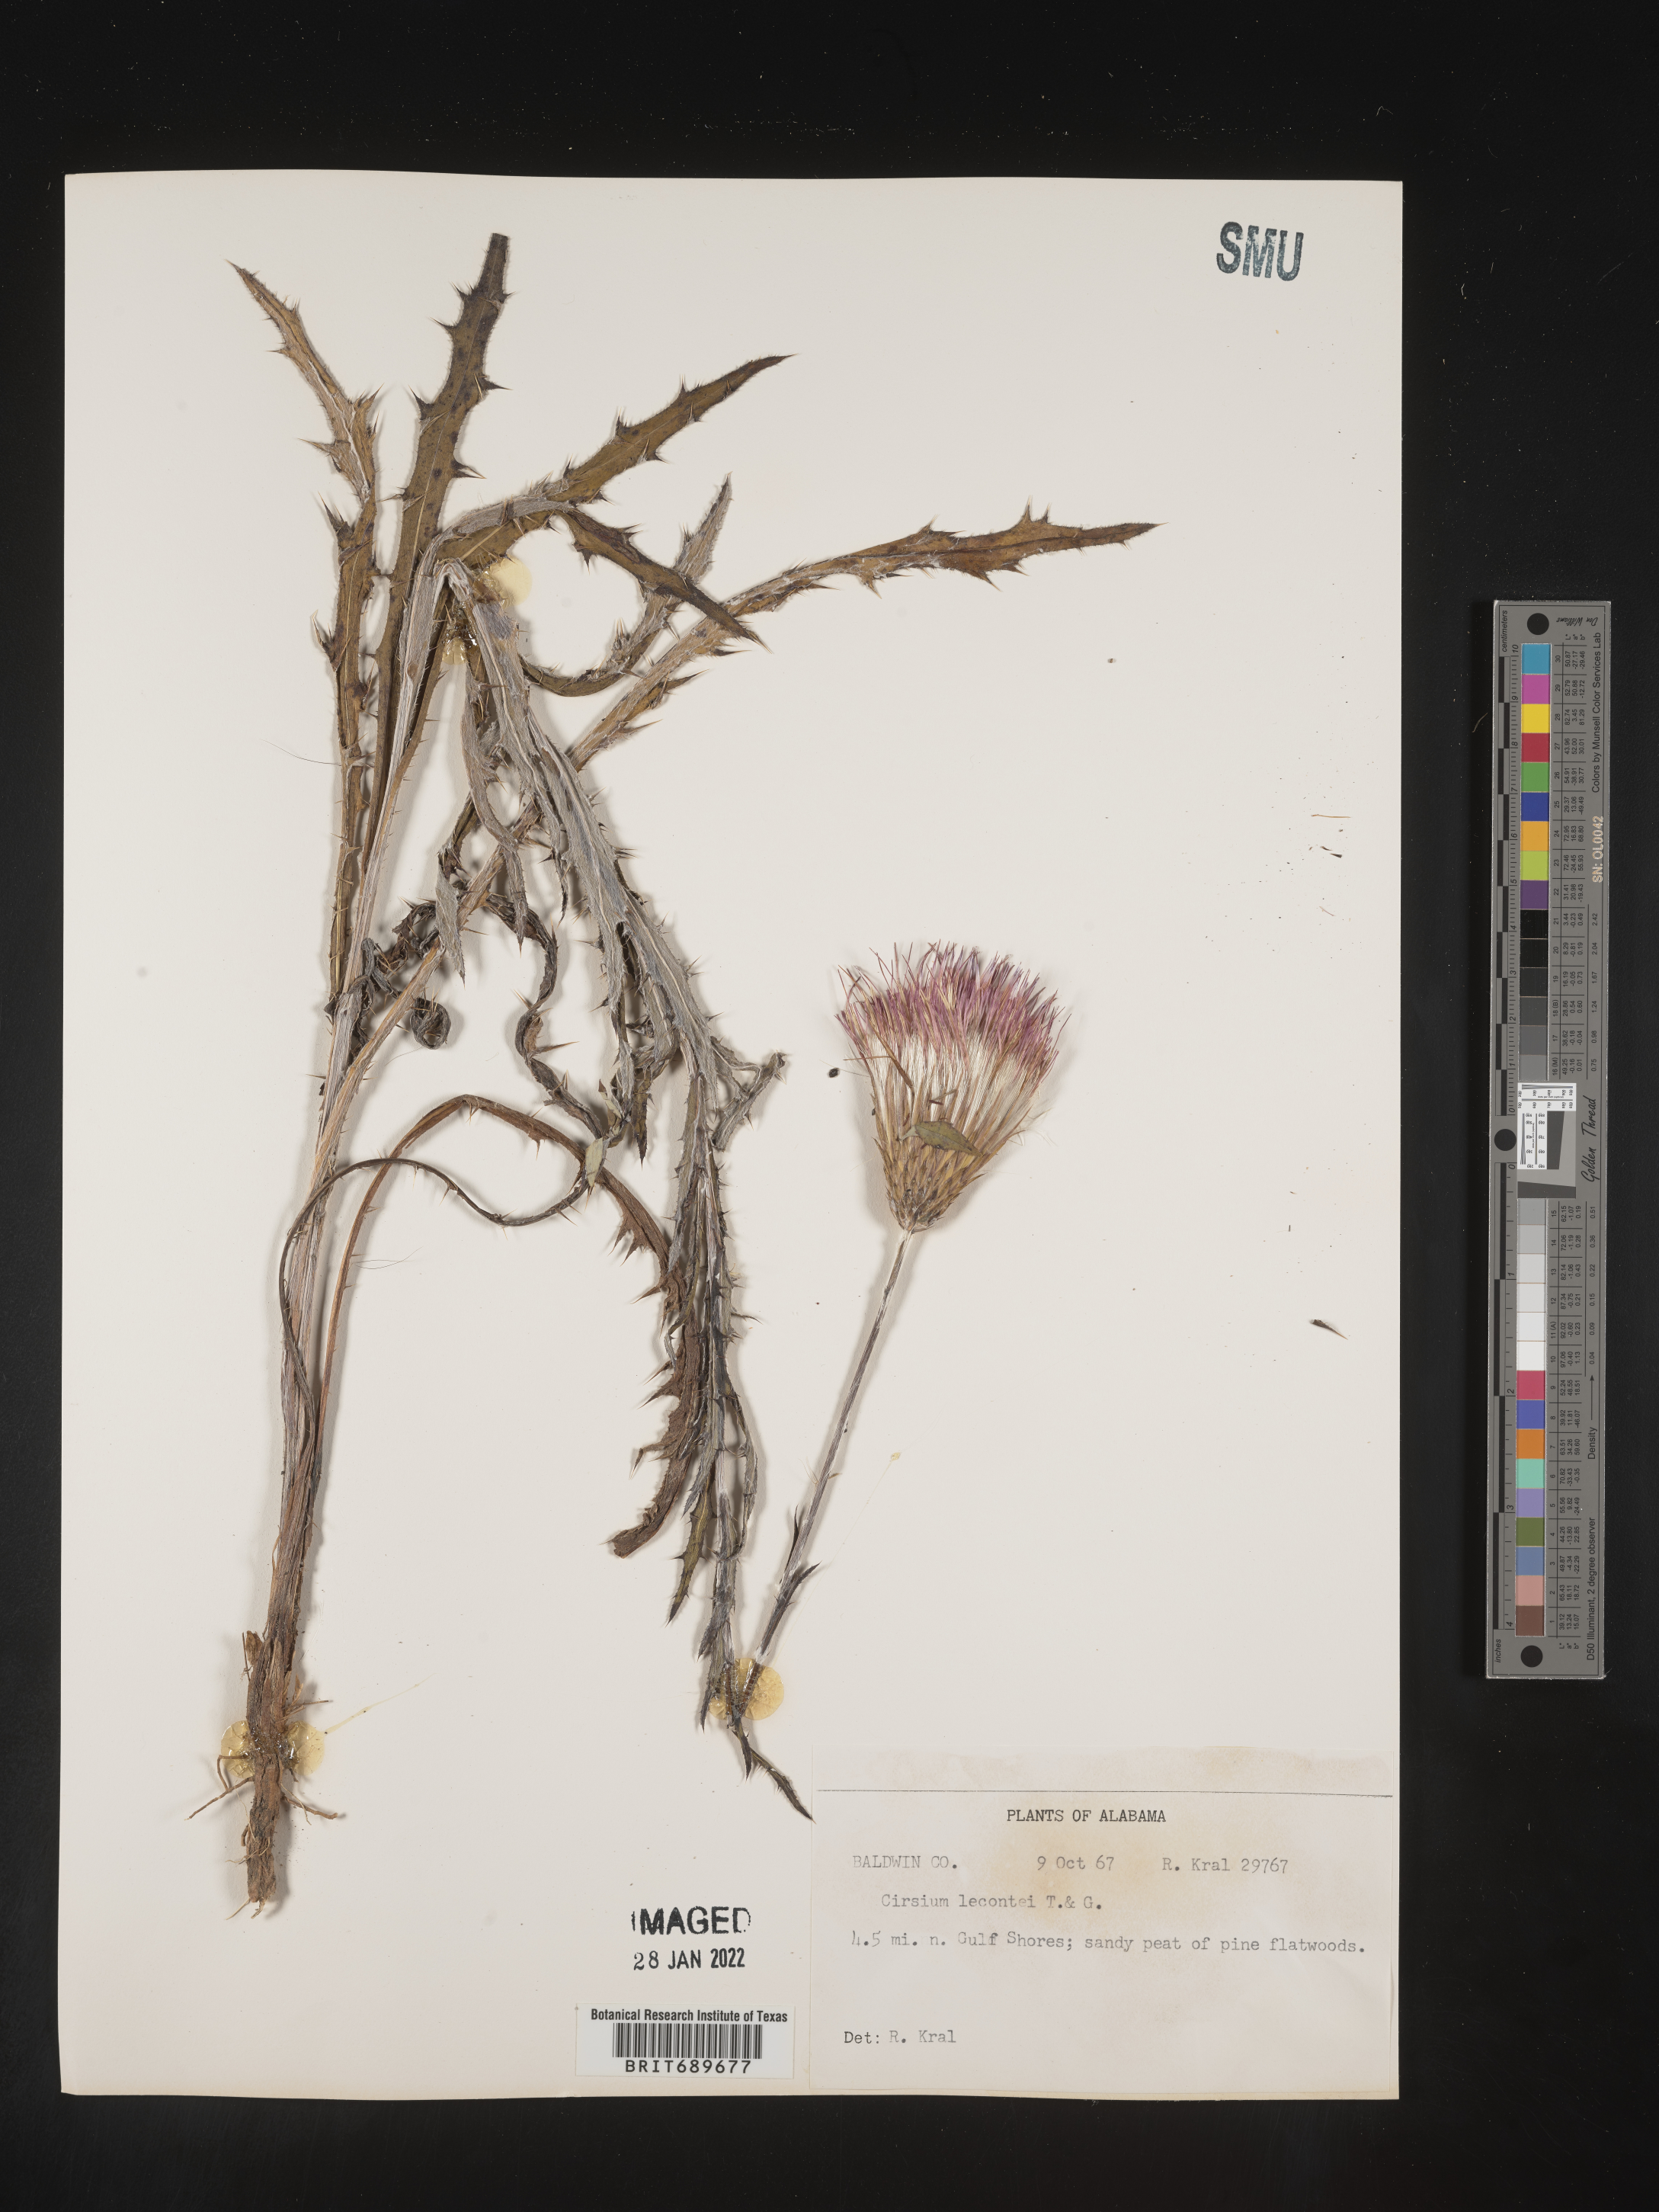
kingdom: Plantae
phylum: Tracheophyta
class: Magnoliopsida
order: Asterales
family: Asteraceae
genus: Cirsium
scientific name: Cirsium lecontei
